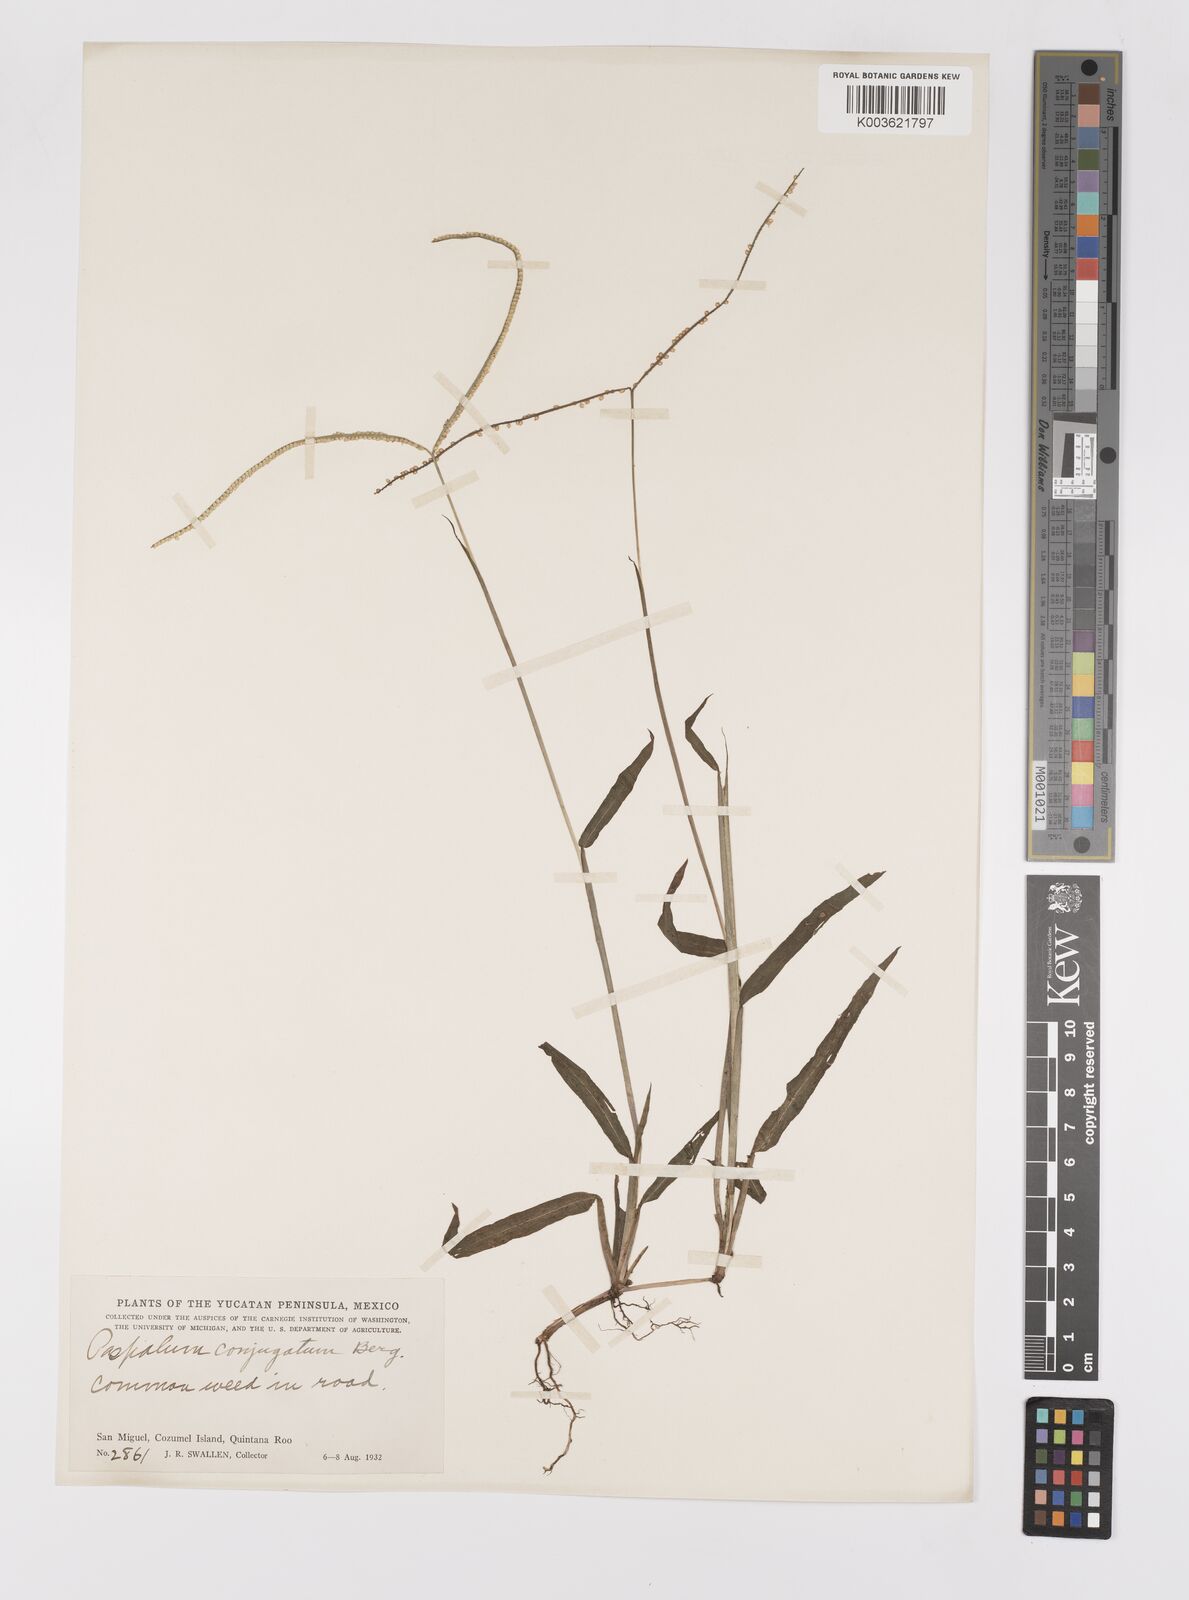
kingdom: Plantae
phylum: Tracheophyta
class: Liliopsida
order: Poales
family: Poaceae
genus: Paspalum
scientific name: Paspalum conjugatum
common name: Hilograss
